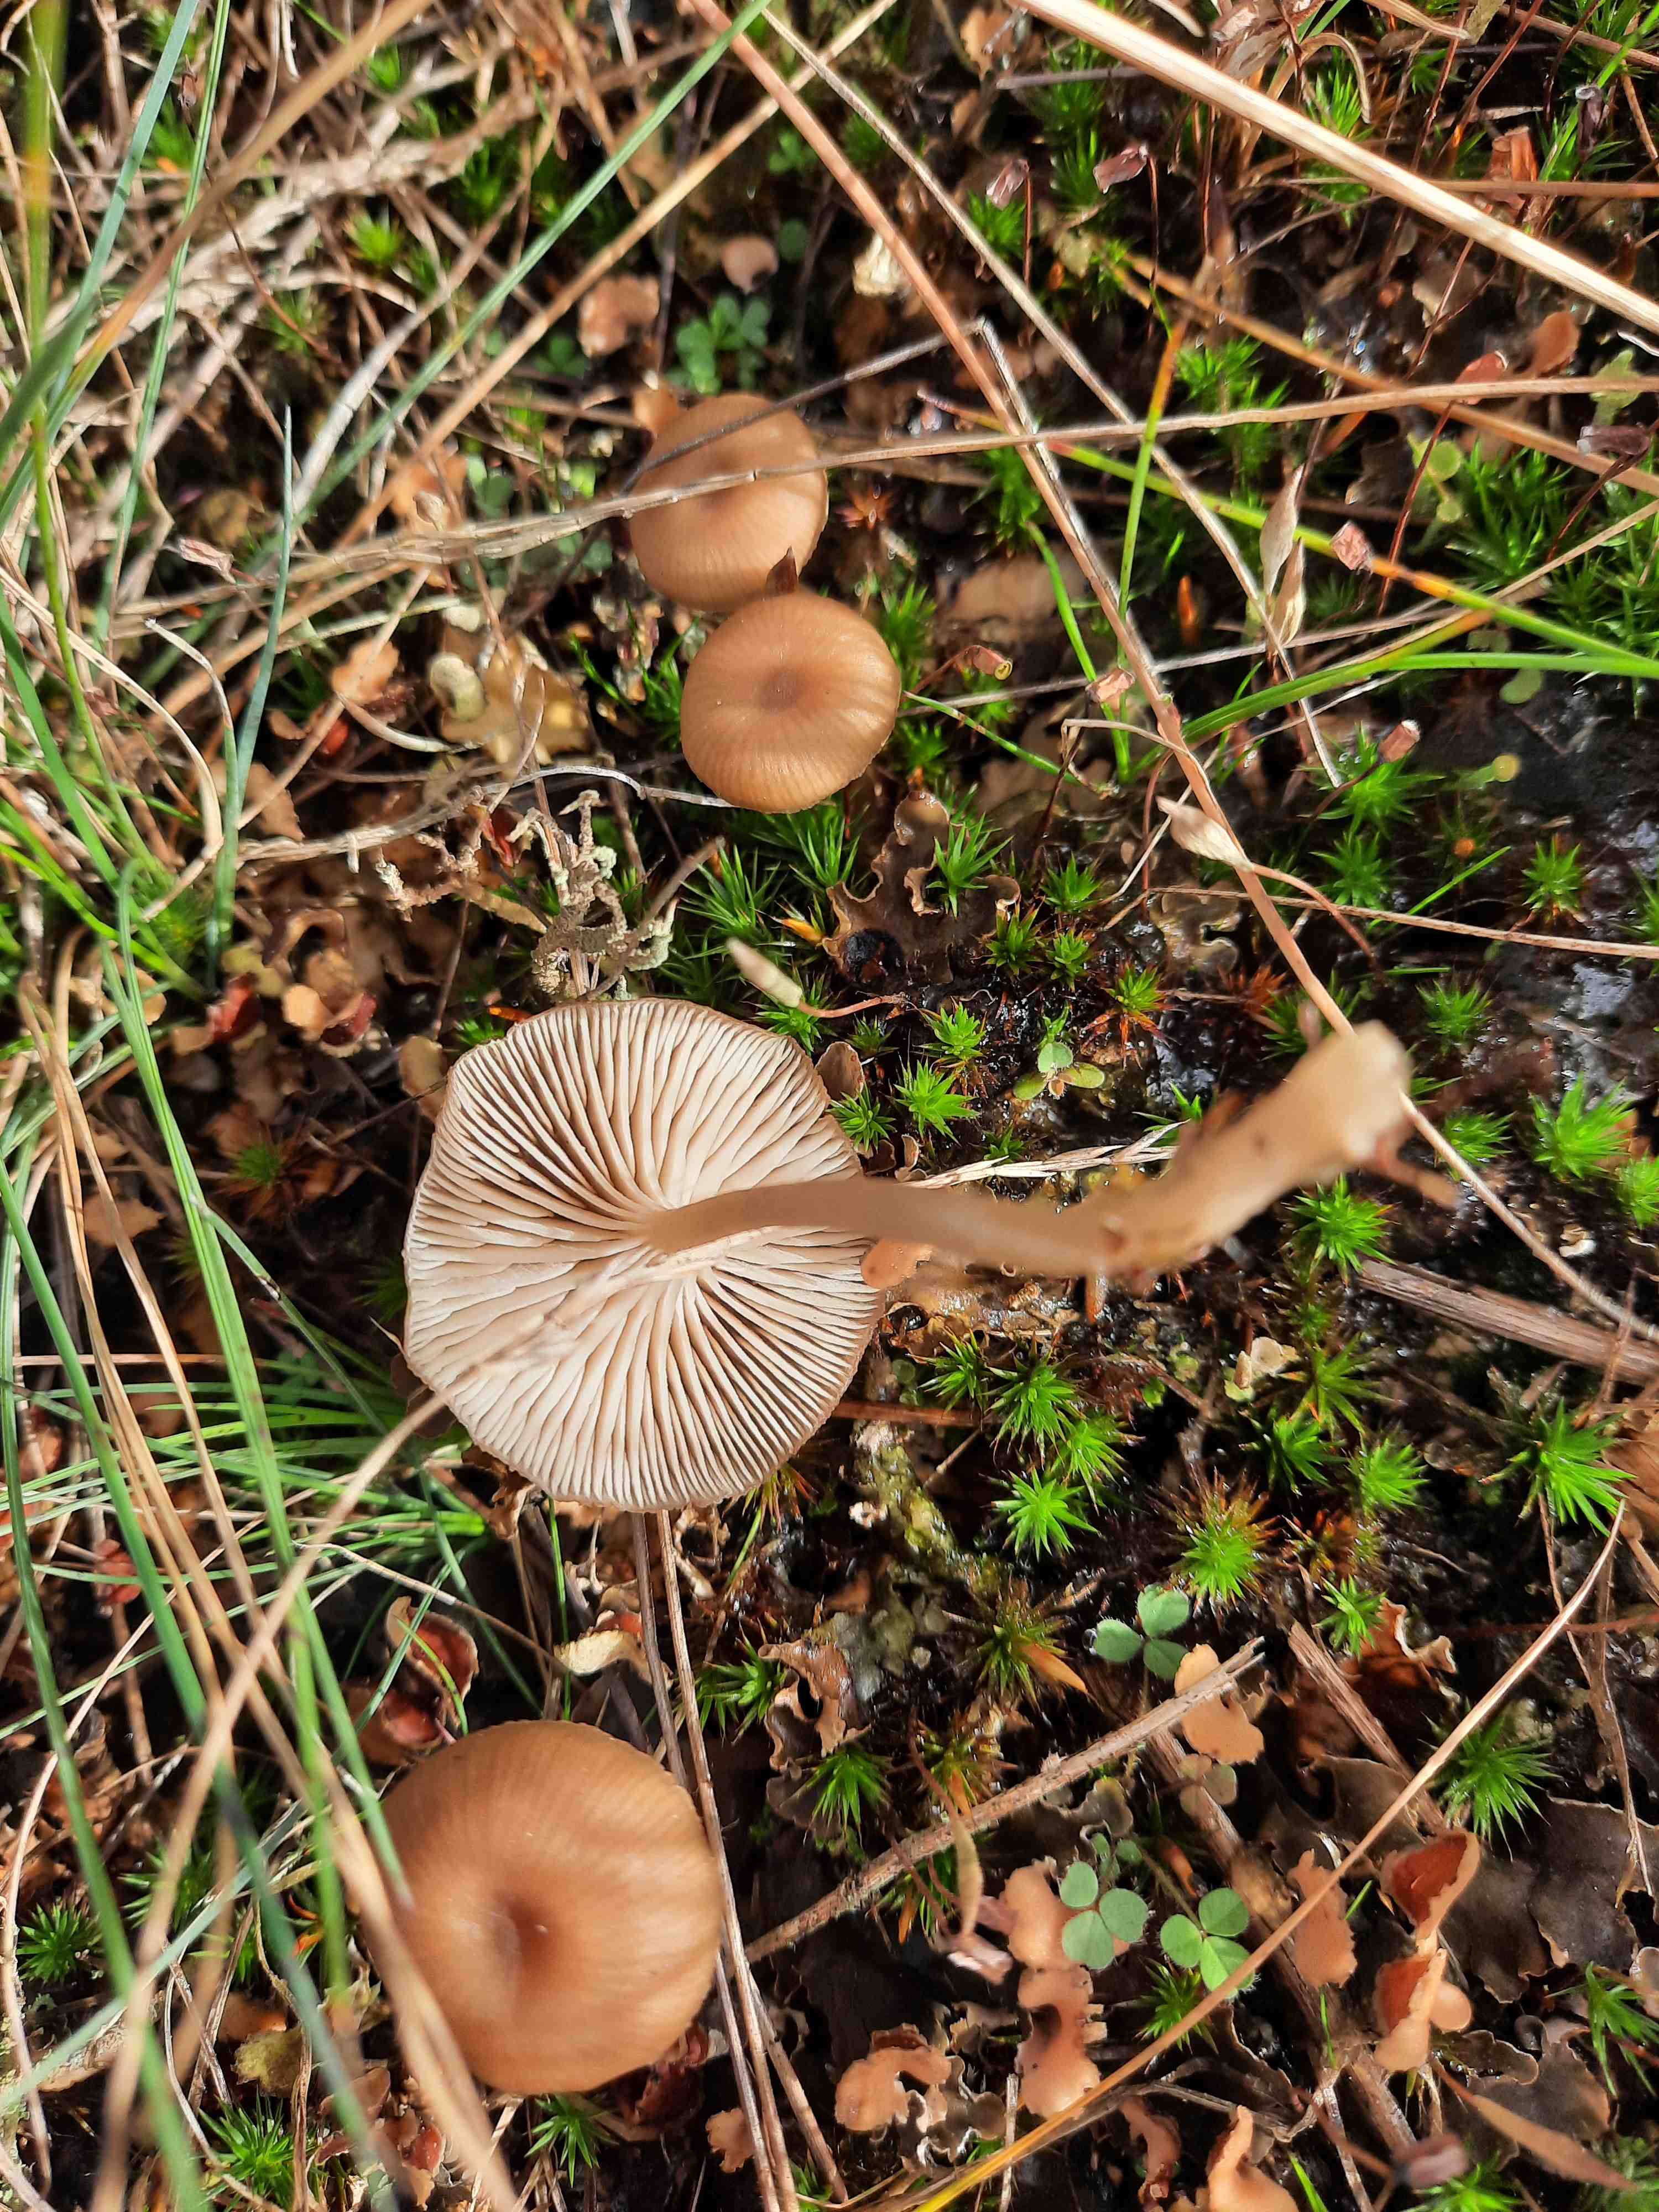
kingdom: Fungi
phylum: Basidiomycota
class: Agaricomycetes
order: Agaricales
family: Tricholomataceae
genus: Gamundia
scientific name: Gamundia xerophila
